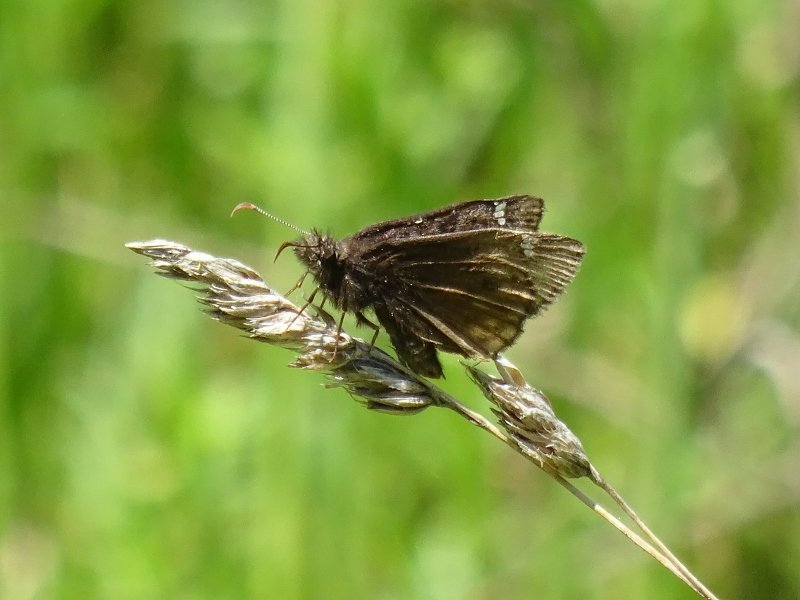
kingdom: Animalia
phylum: Arthropoda
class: Insecta
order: Lepidoptera
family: Hesperiidae
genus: Gesta
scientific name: Gesta
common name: Juvenal's Duskywing
